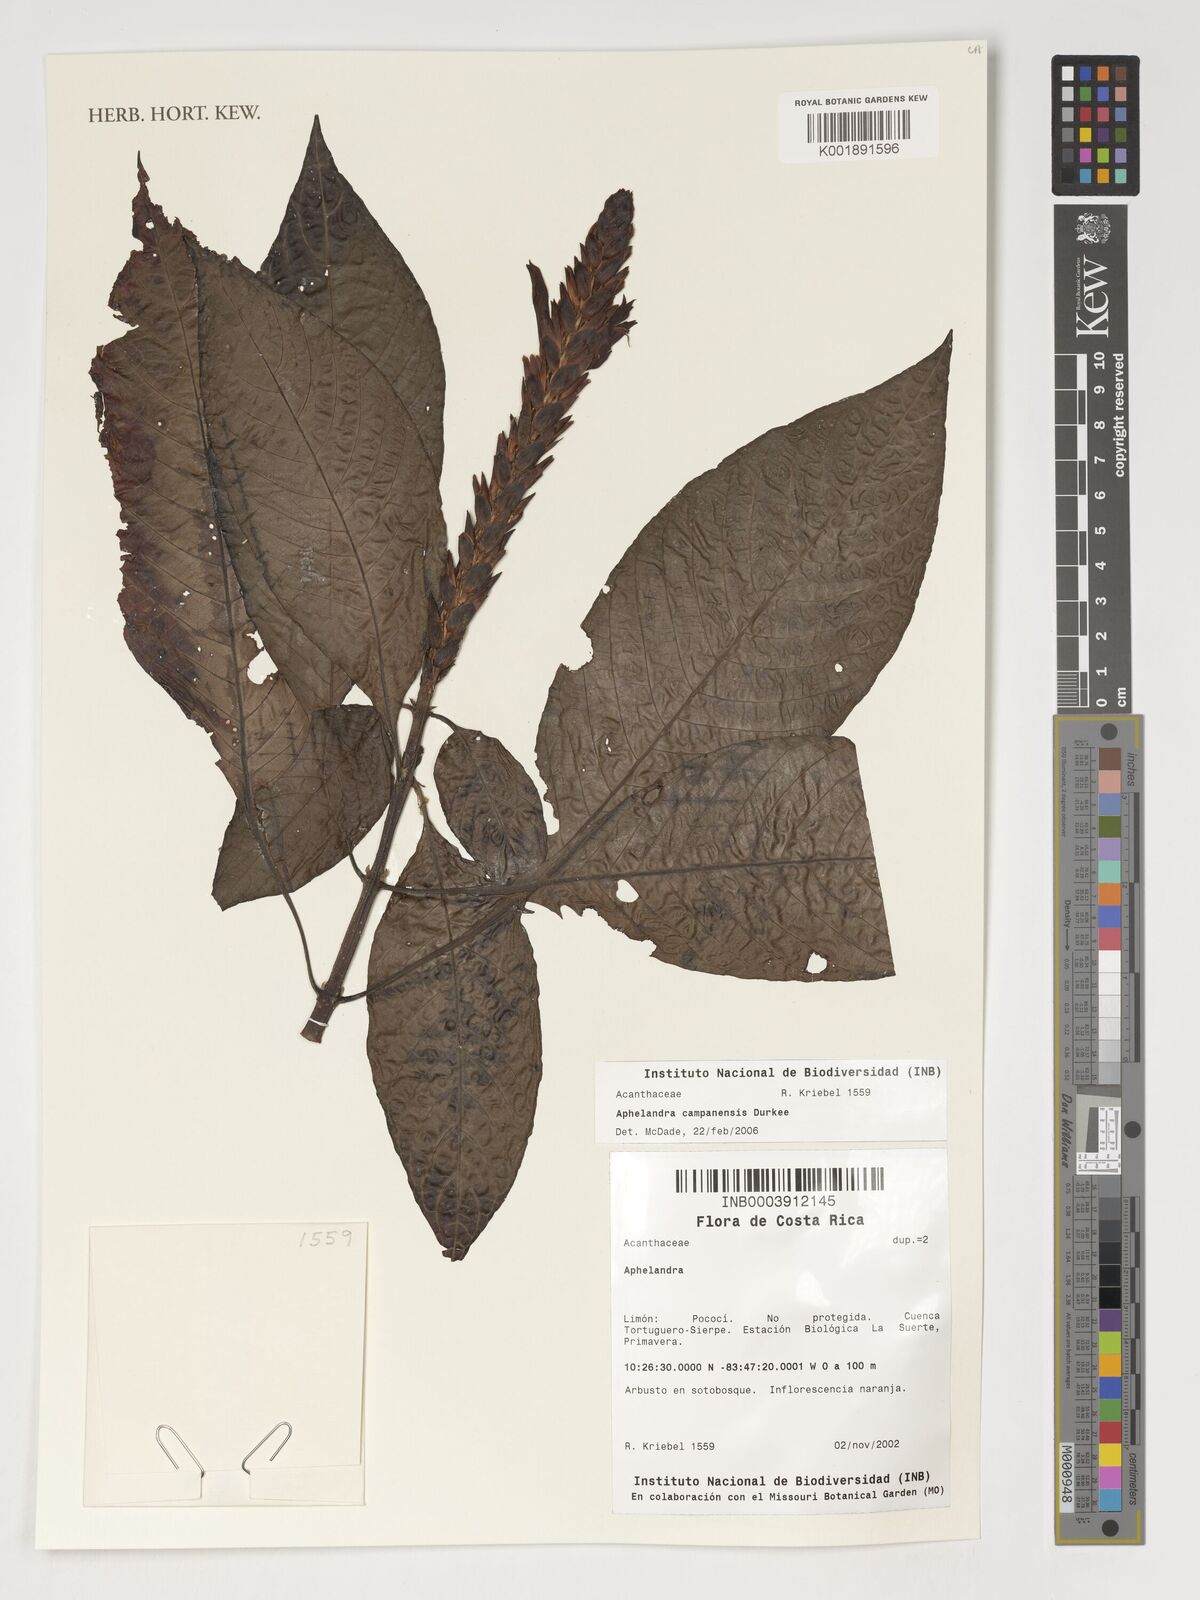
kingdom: Plantae
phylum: Tracheophyta
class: Magnoliopsida
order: Lamiales
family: Acanthaceae
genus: Aphelandra
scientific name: Aphelandra
